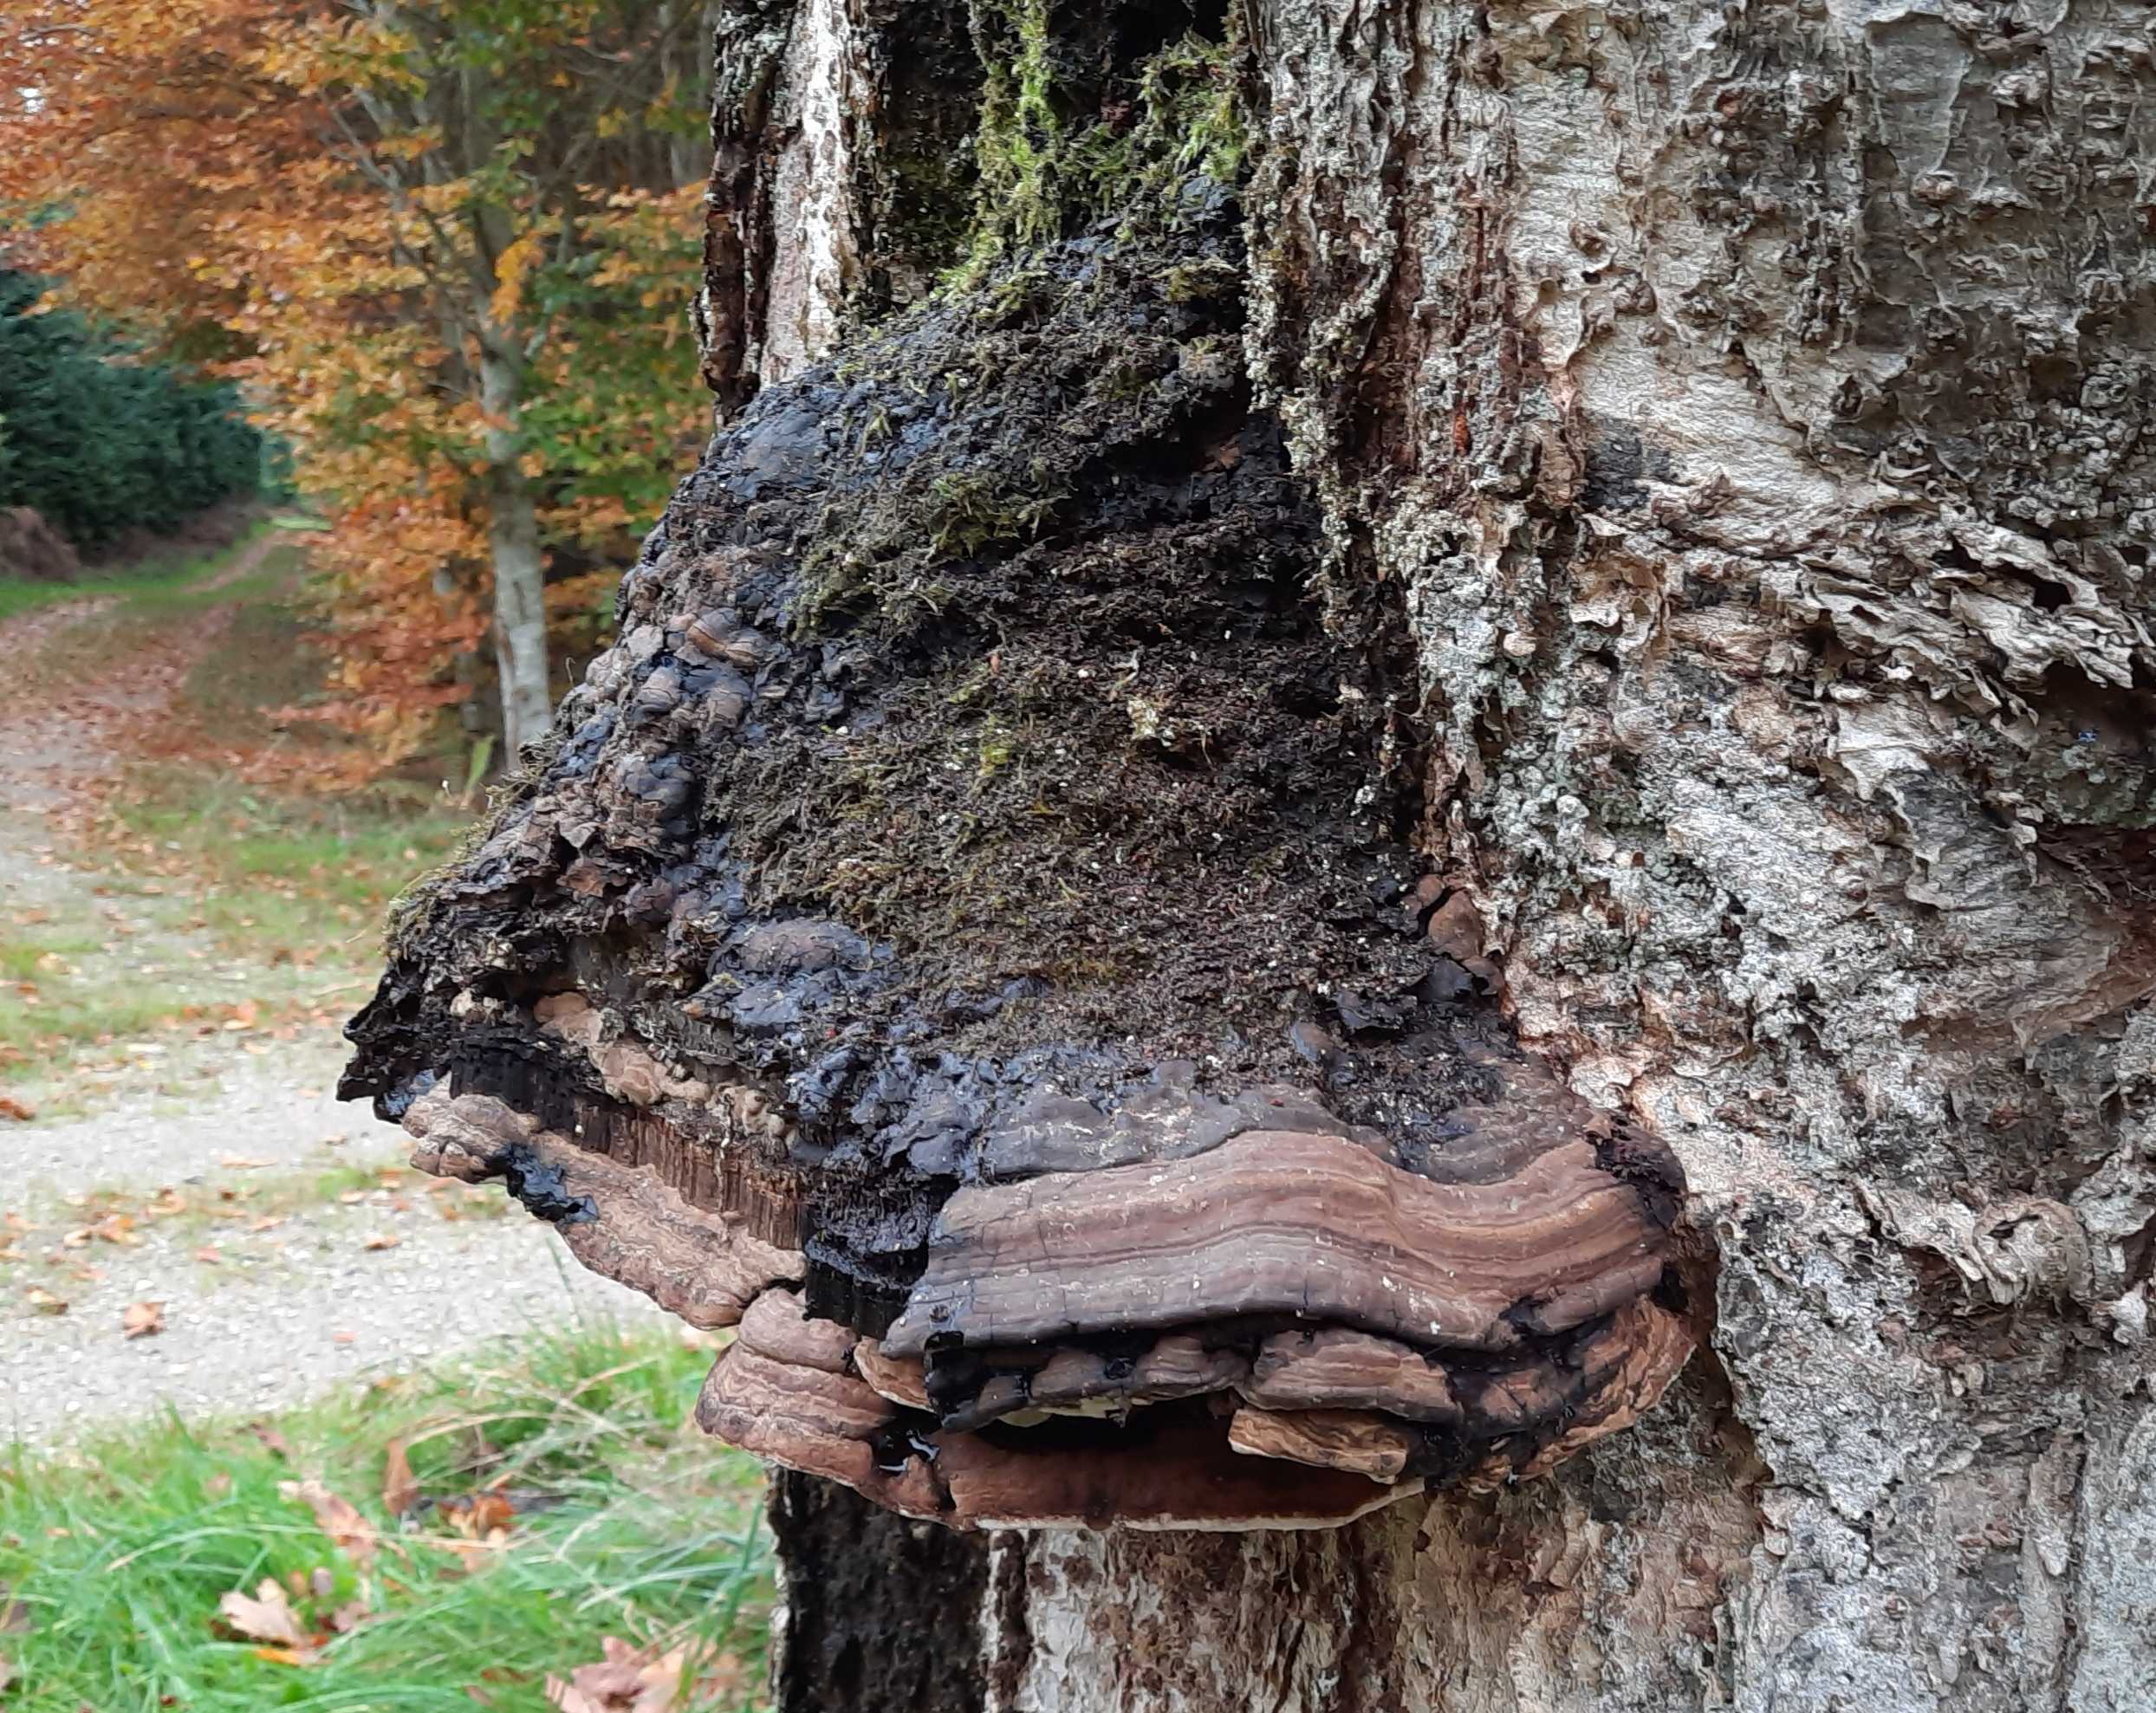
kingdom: Fungi
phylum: Basidiomycota
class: Agaricomycetes
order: Polyporales
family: Polyporaceae
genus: Ganoderma
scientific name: Ganoderma adspersum
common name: grov lakporesvamp
